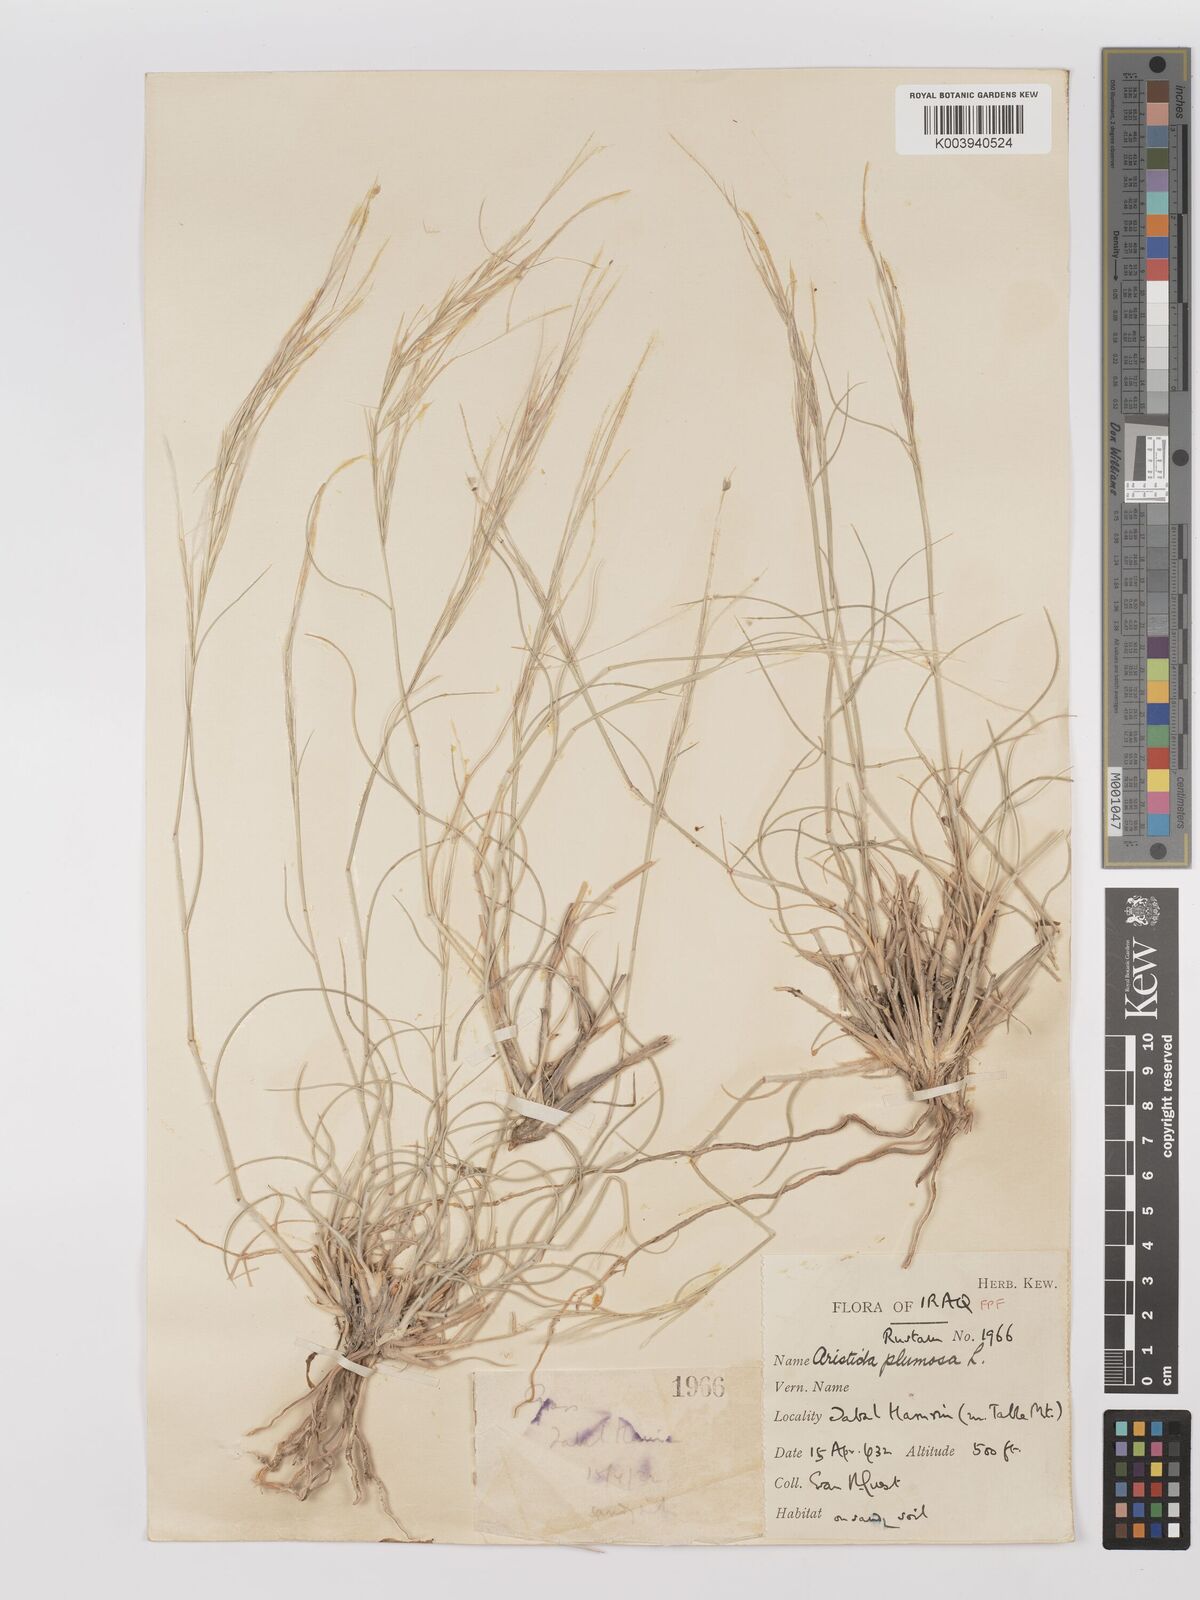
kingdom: Plantae
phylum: Tracheophyta
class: Liliopsida
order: Poales
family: Poaceae
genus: Stipagrostis
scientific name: Stipagrostis plumosa
